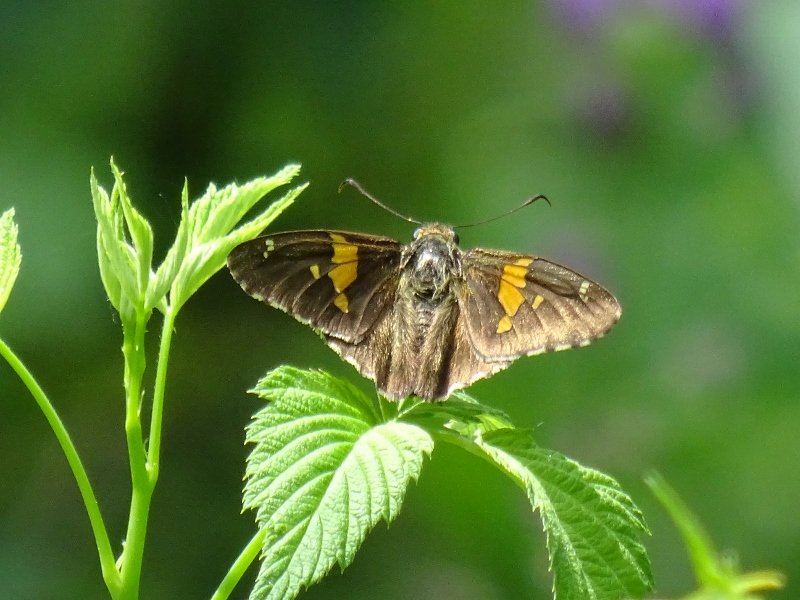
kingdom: Animalia
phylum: Arthropoda
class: Insecta
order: Lepidoptera
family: Hesperiidae
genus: Epargyreus
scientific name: Epargyreus clarus
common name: Silver-spotted Skipper
